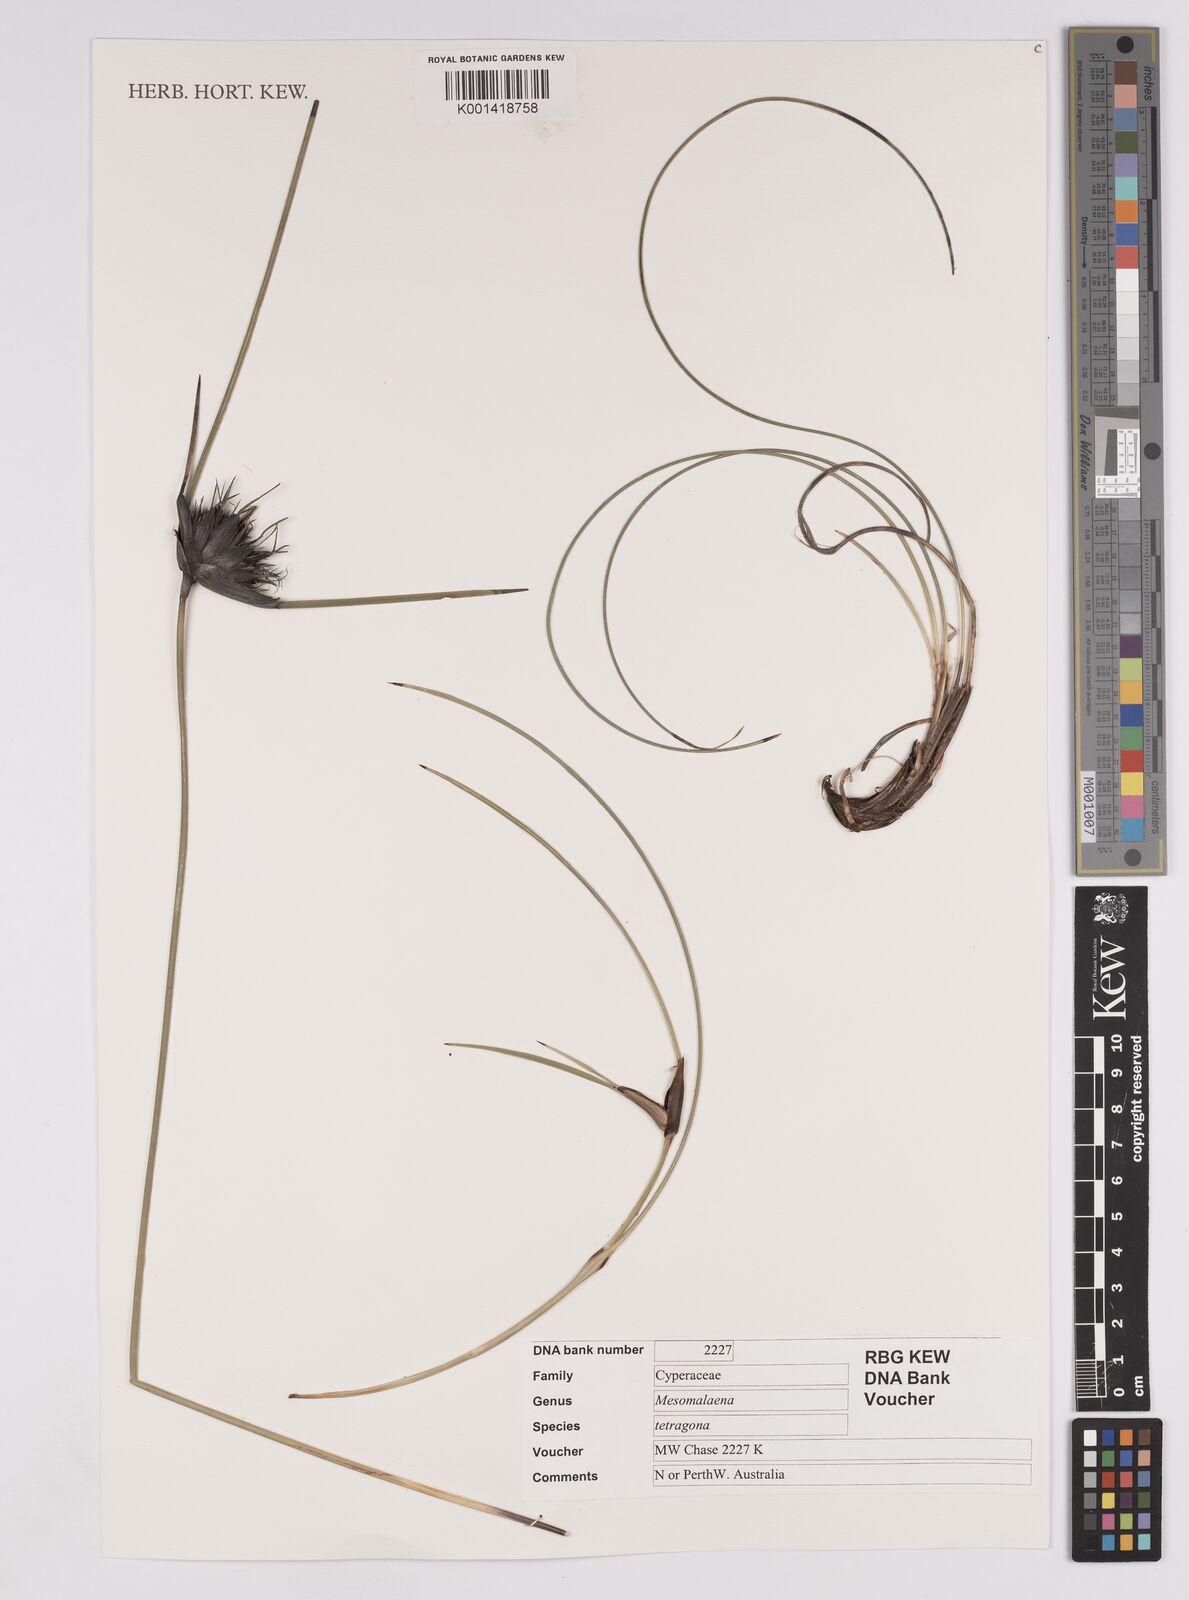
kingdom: Plantae
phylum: Tracheophyta
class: Liliopsida
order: Poales
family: Cyperaceae
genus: Mesomelaena
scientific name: Mesomelaena tetragona
